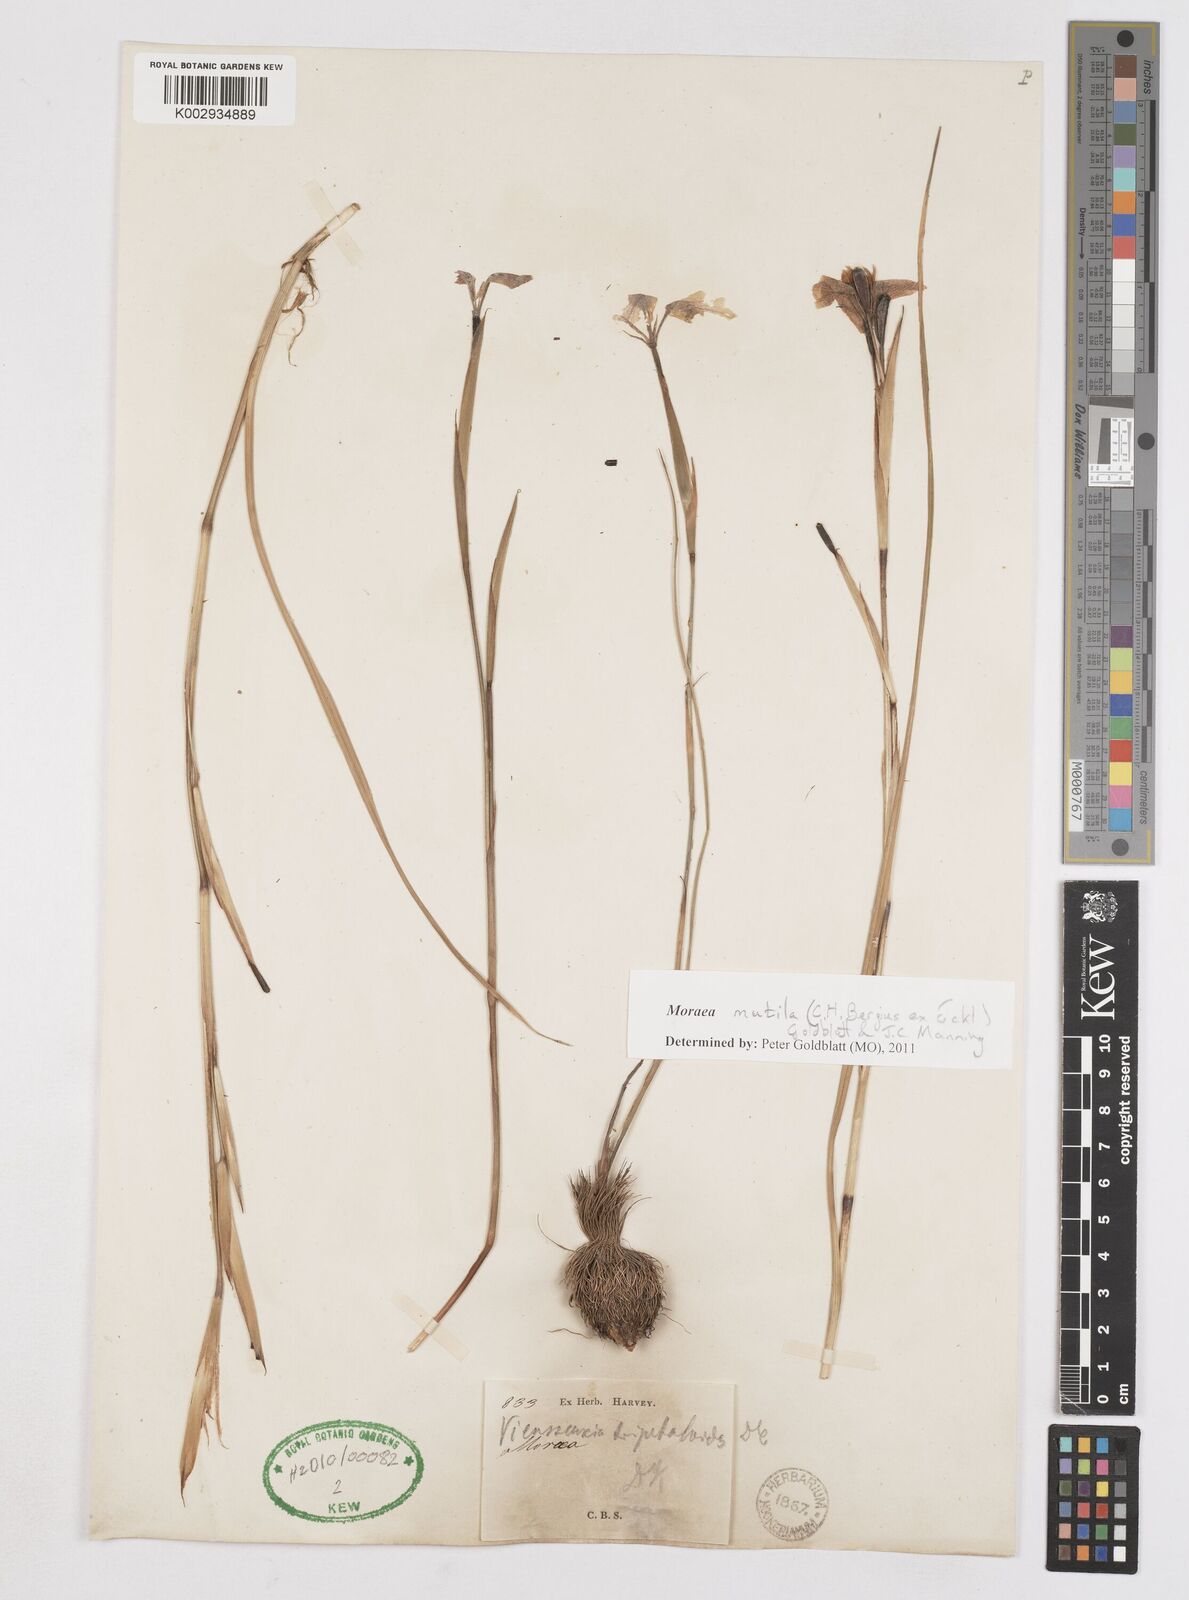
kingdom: Plantae
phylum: Tracheophyta
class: Liliopsida
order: Asparagales
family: Iridaceae
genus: Moraea
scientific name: Moraea punctata
